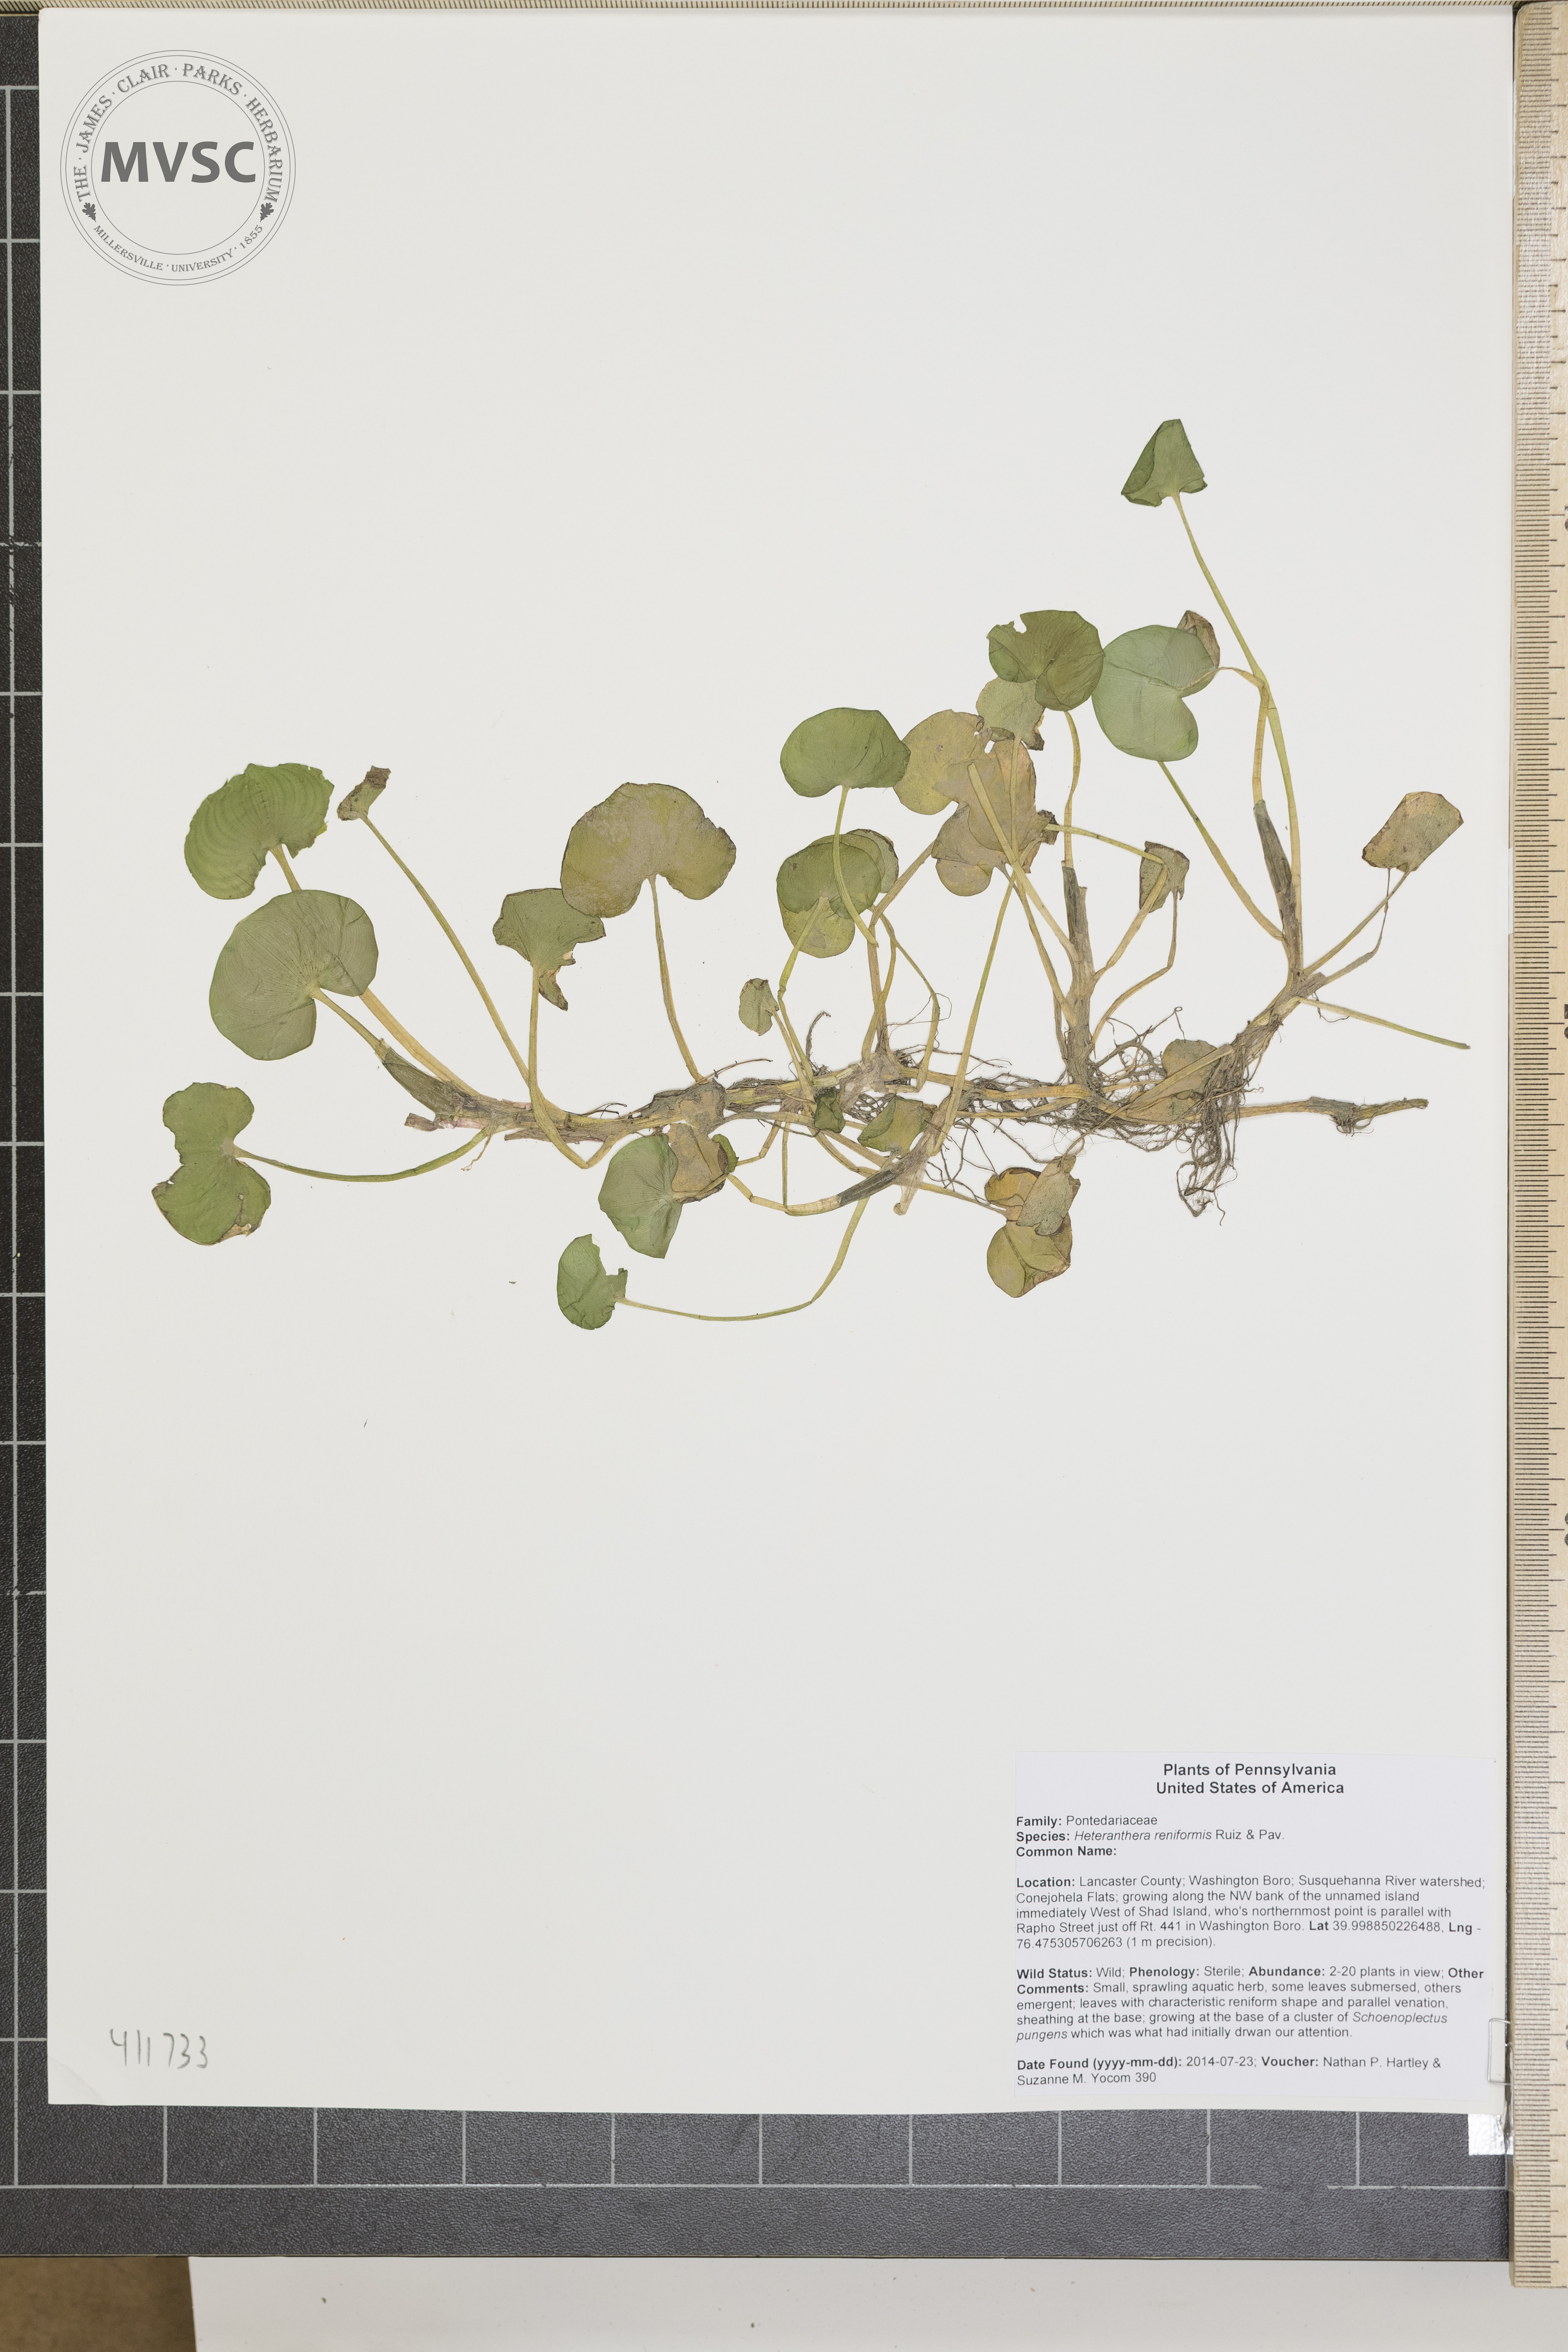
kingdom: Plantae
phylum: Tracheophyta
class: Liliopsida
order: Commelinales
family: Pontederiaceae
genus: Heteranthera
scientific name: Heteranthera reniformis
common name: Kidneyleaf mudplantain
